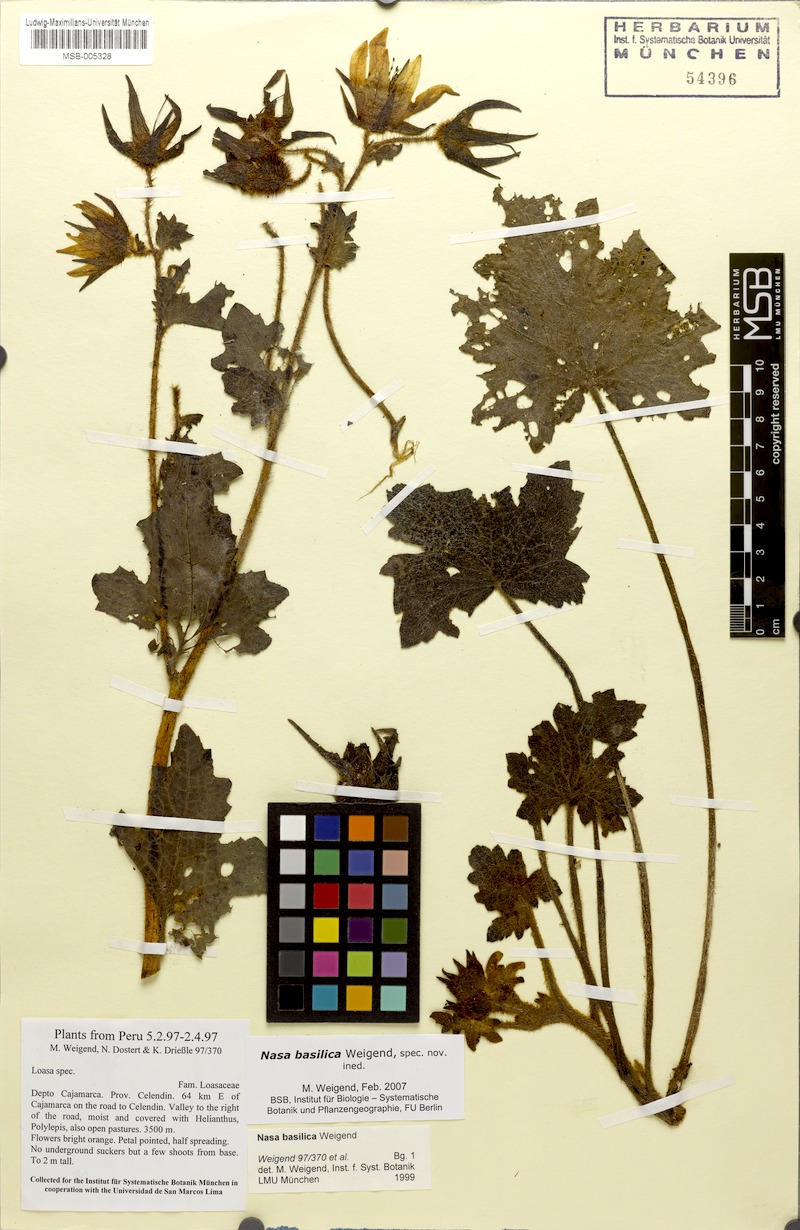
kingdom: Plantae
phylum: Tracheophyta
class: Magnoliopsida
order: Cornales
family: Loasaceae
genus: Nasa
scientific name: Nasa basilica
